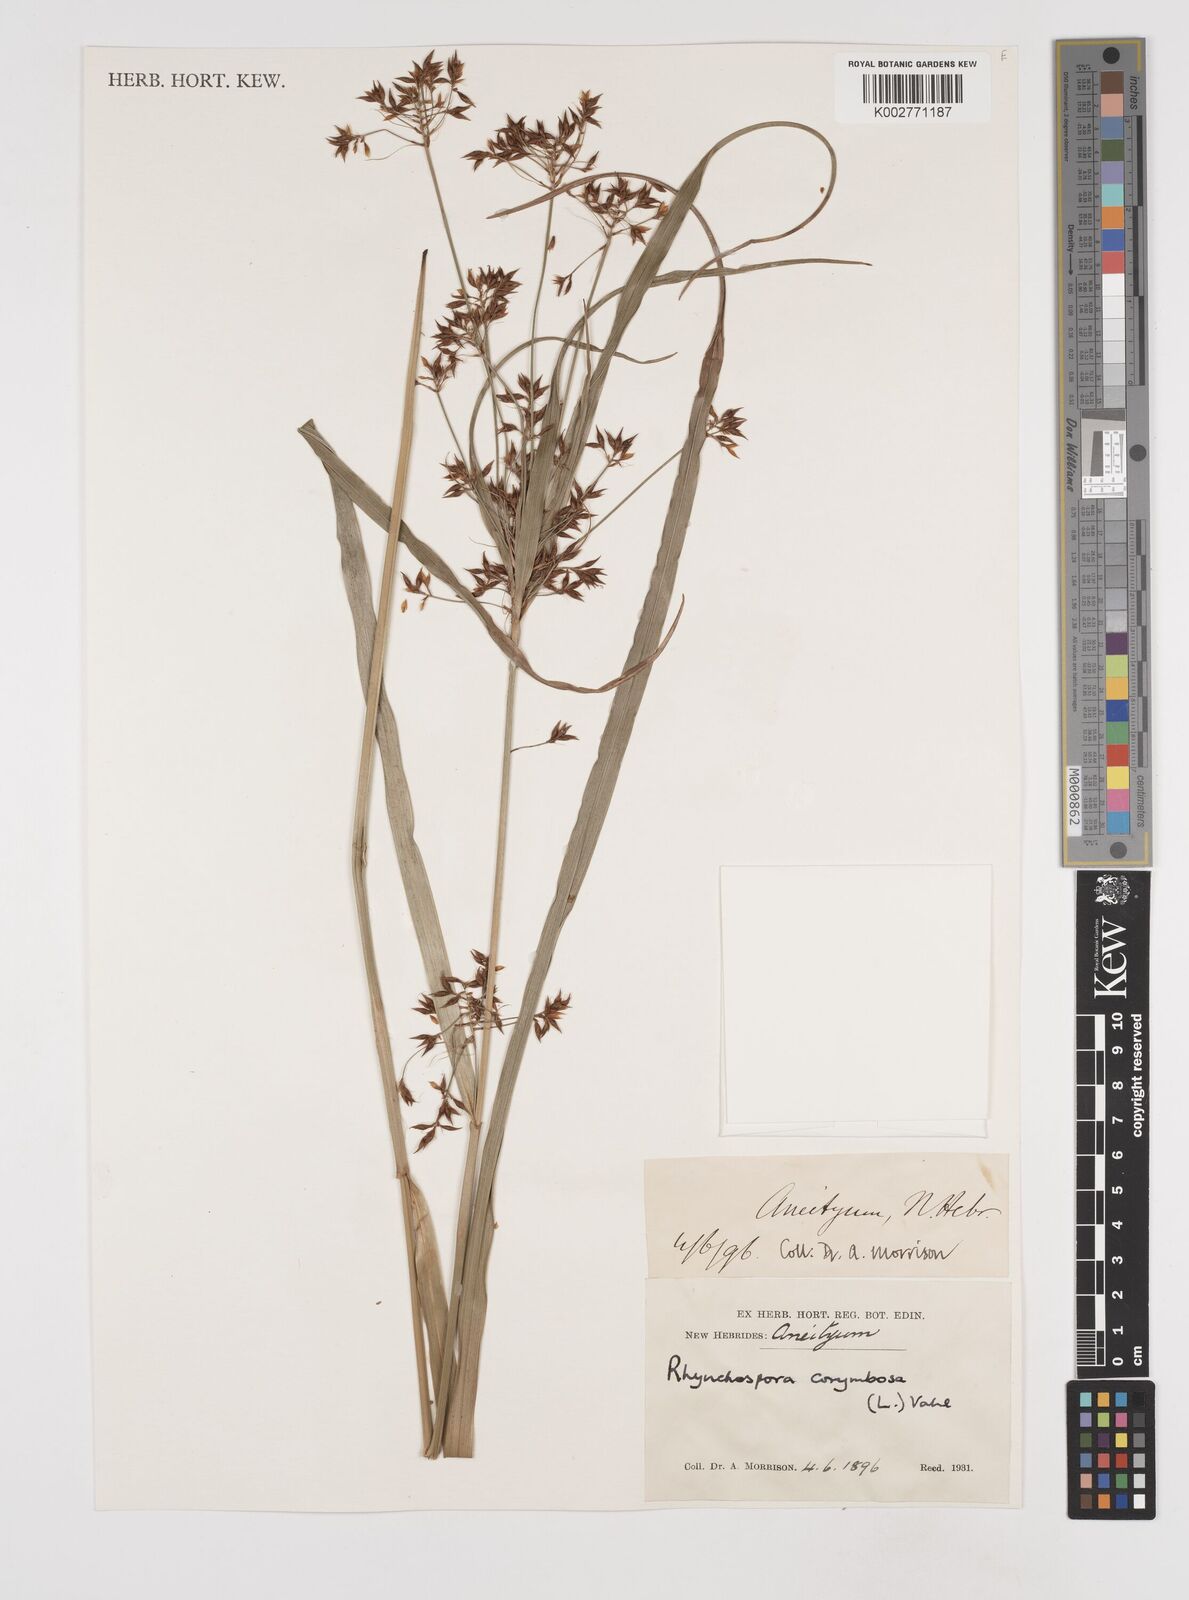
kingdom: Plantae
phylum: Tracheophyta
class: Liliopsida
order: Poales
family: Cyperaceae
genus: Rhynchospora
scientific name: Rhynchospora corymbosa
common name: Golden beak sedge
